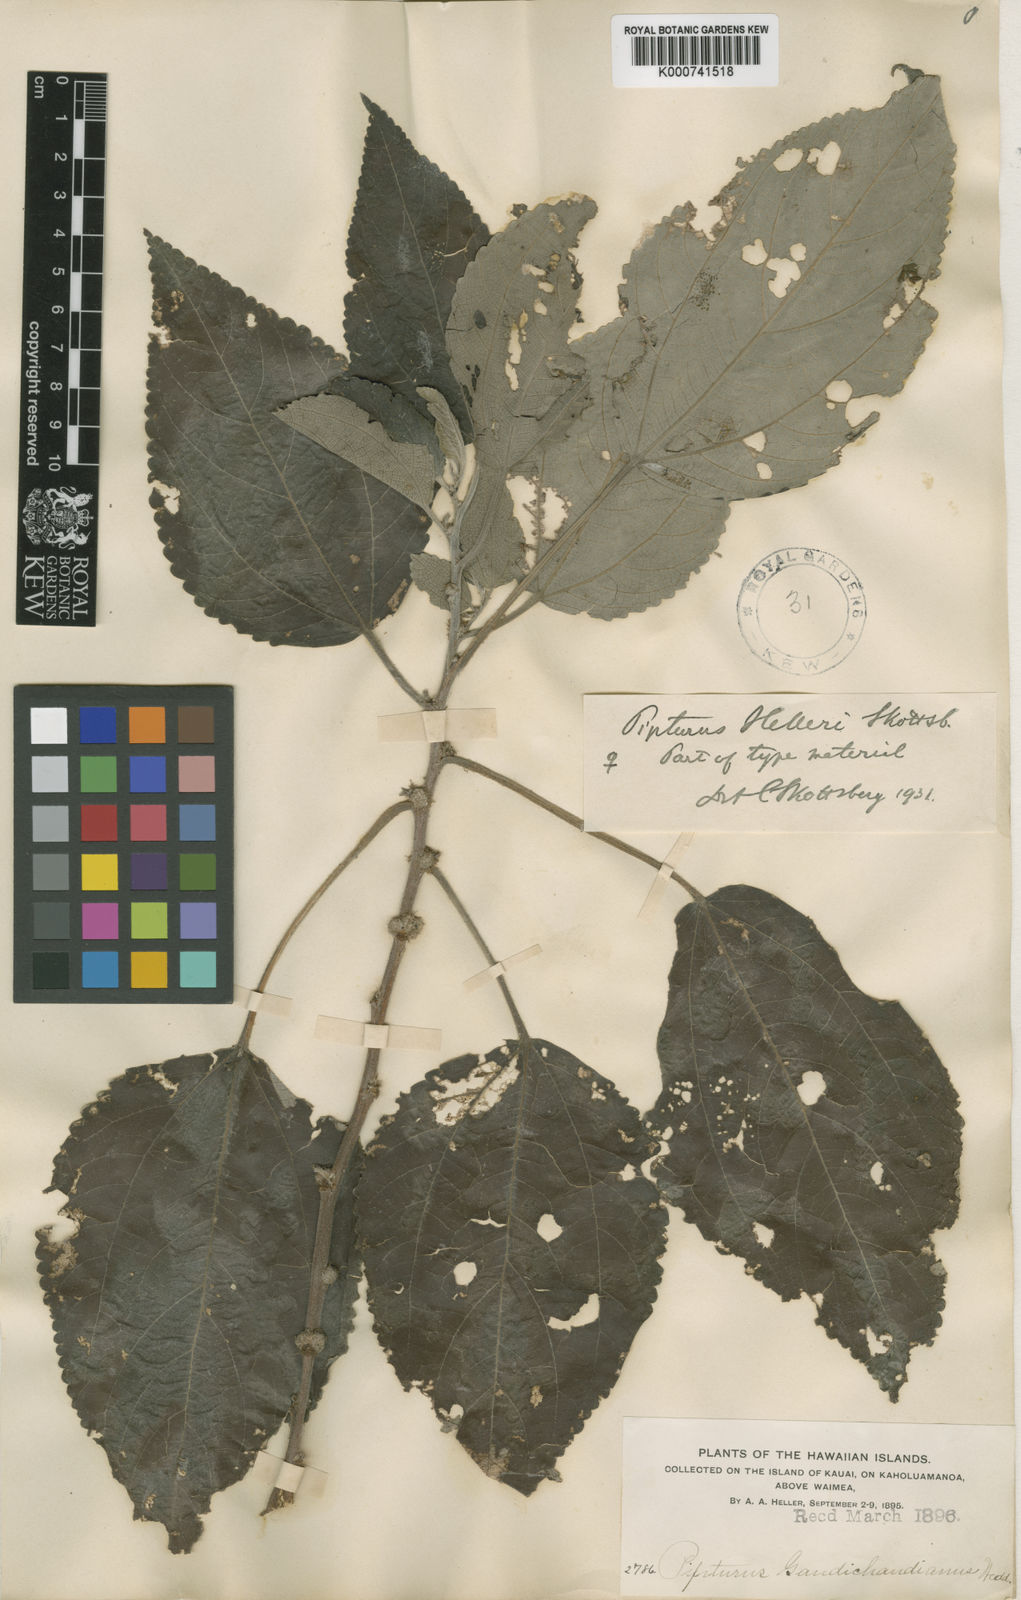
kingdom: Plantae
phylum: Tracheophyta
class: Magnoliopsida
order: Rosales
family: Urticaceae
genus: Pipturus
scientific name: Pipturus albidus
